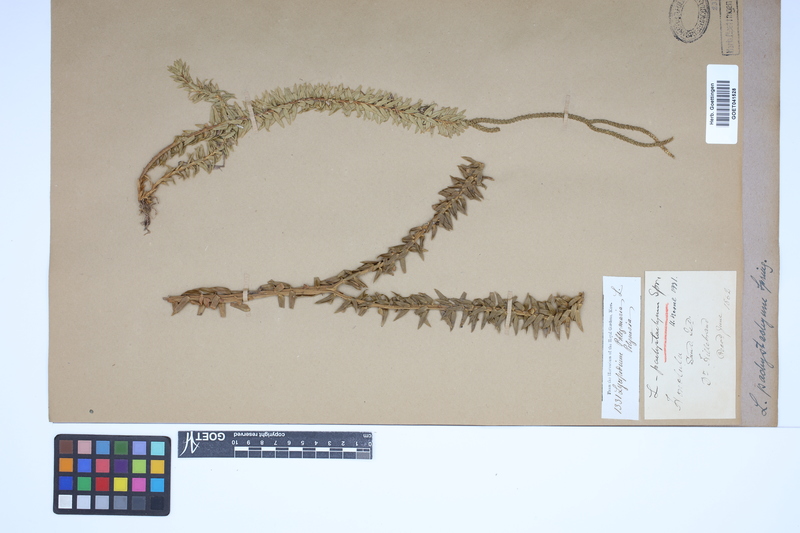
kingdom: Plantae
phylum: Tracheophyta
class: Lycopodiopsida
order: Lycopodiales
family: Lycopodiaceae
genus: Phlegmariurus
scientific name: Phlegmariurus phyllanthus
